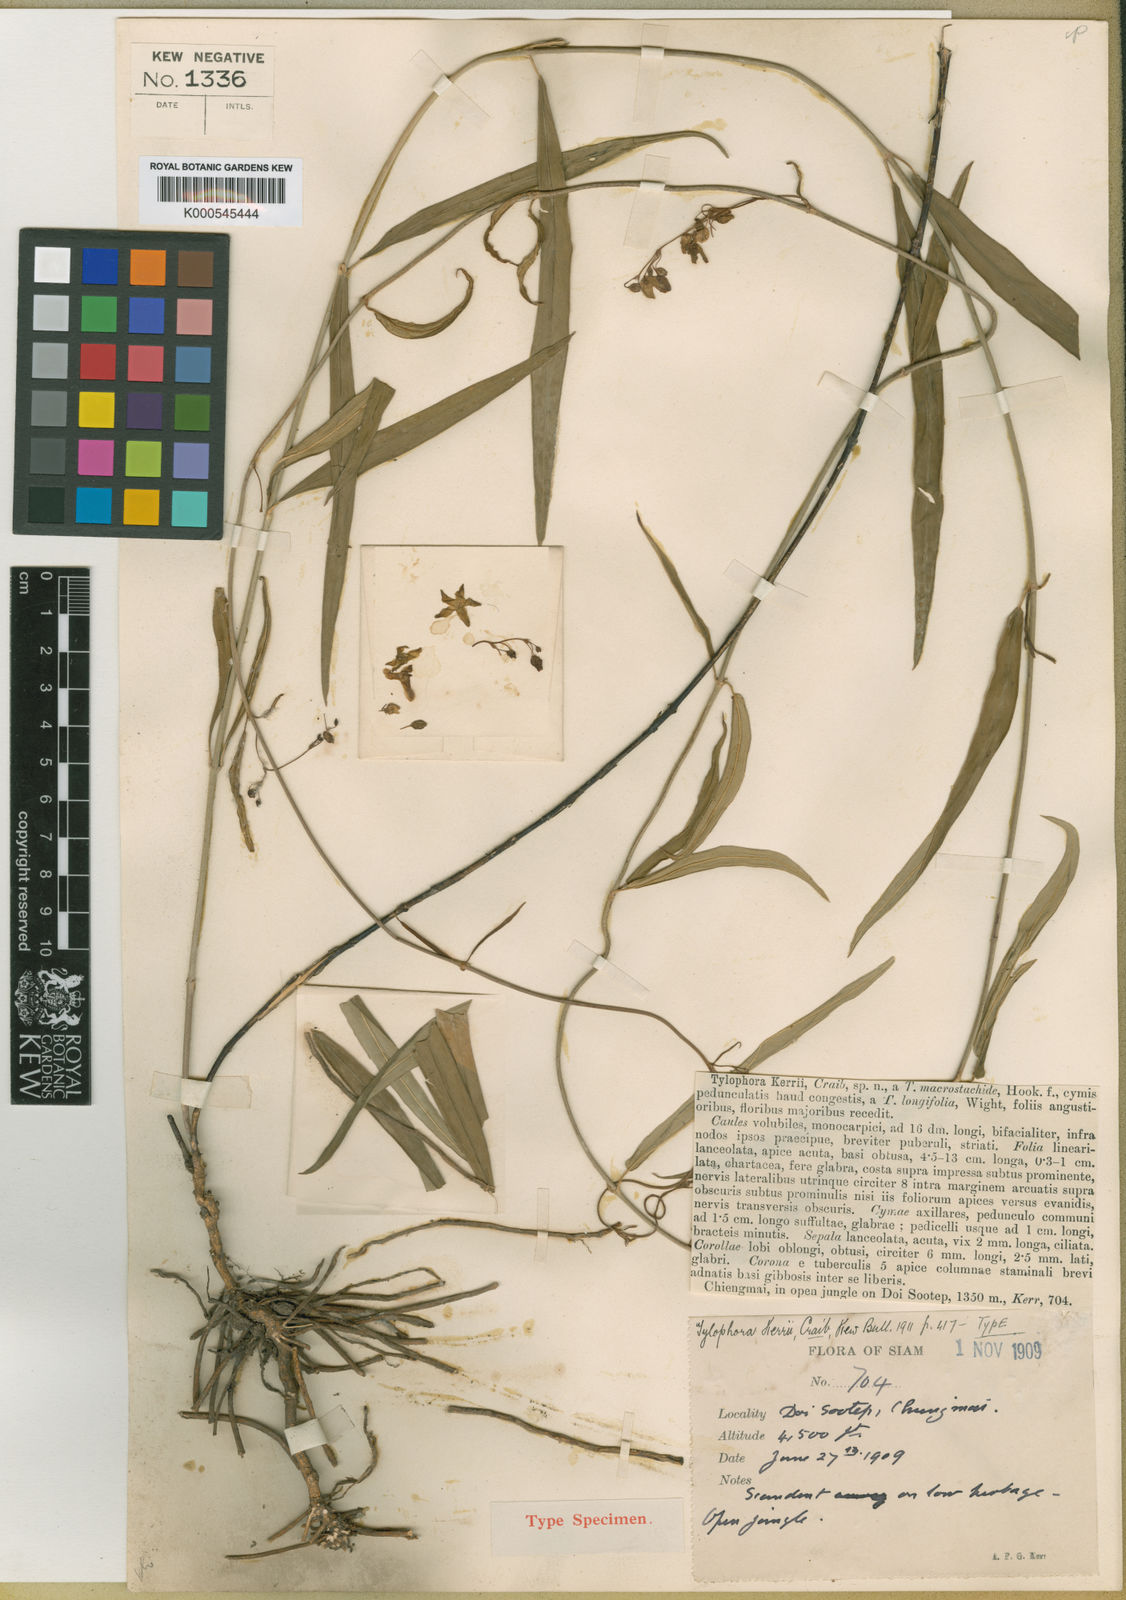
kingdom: Plantae
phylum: Tracheophyta
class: Magnoliopsida
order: Gentianales
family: Apocynaceae
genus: Vincetoxicum
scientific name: Vincetoxicum kerrii
